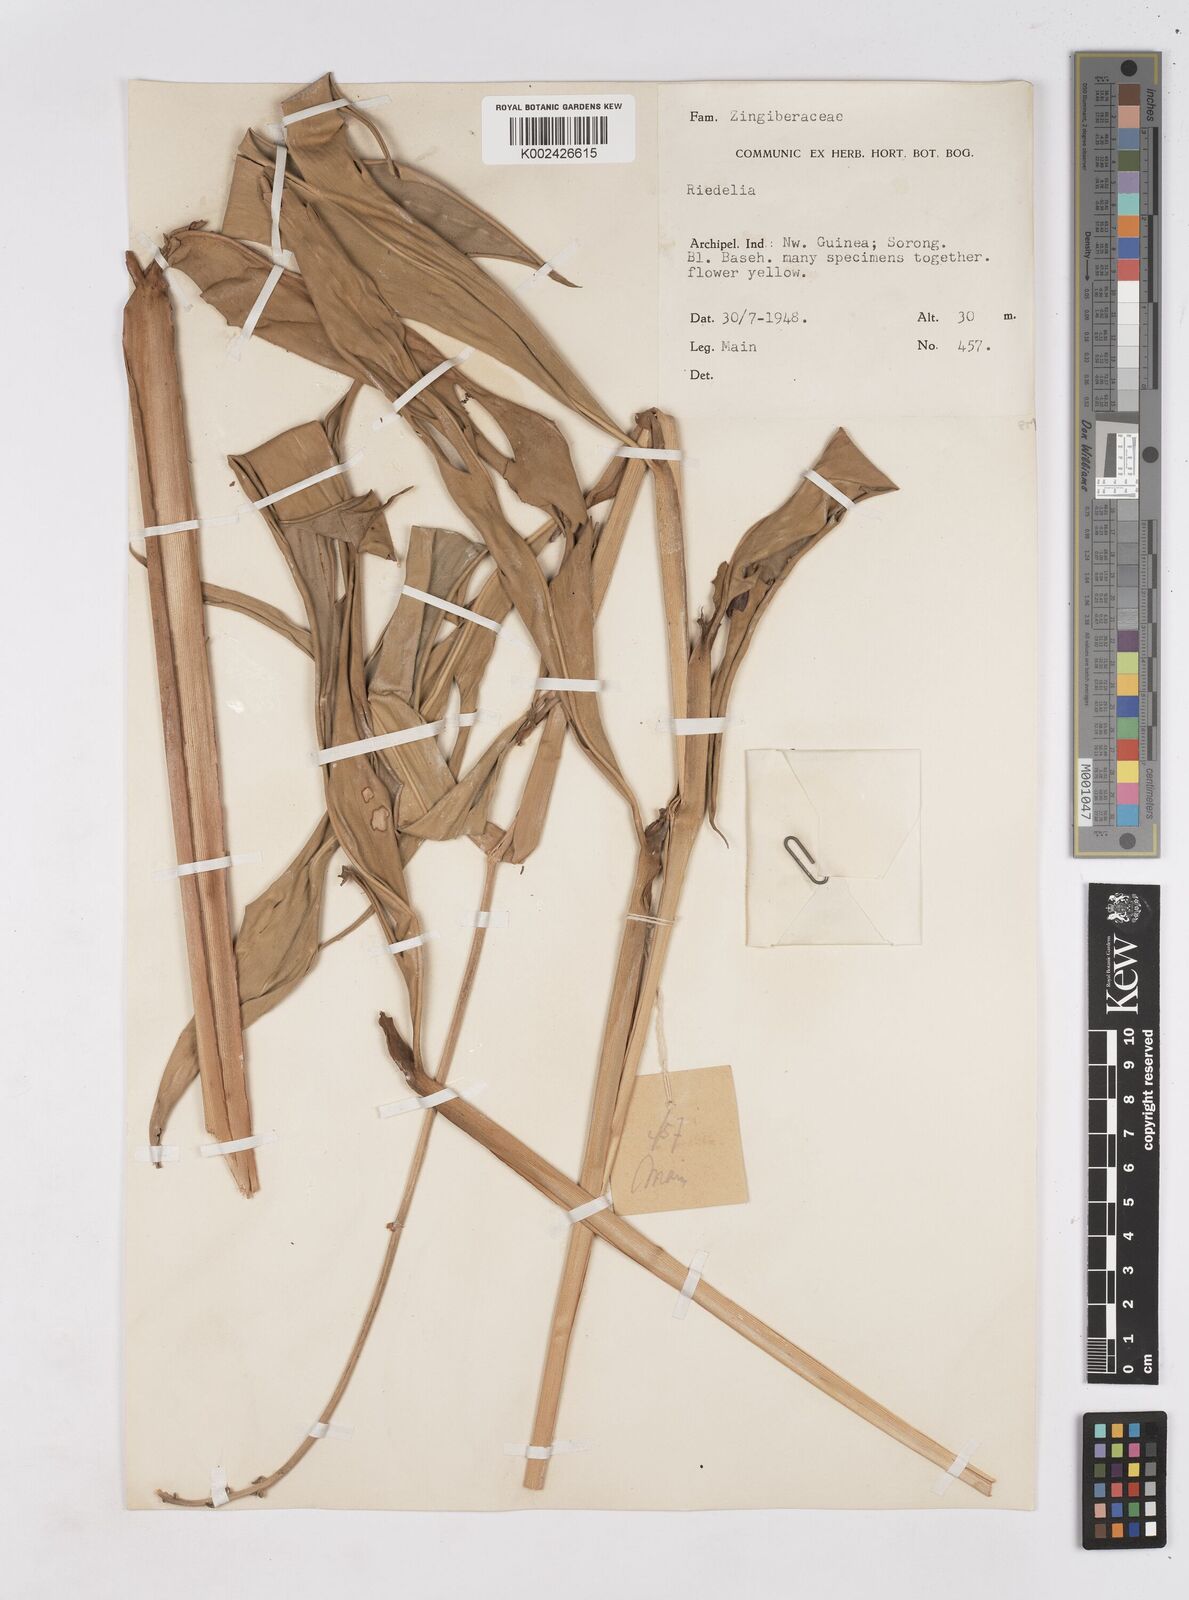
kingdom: Plantae
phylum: Tracheophyta
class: Liliopsida
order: Zingiberales
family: Zingiberaceae
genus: Riedelia
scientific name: Riedelia
